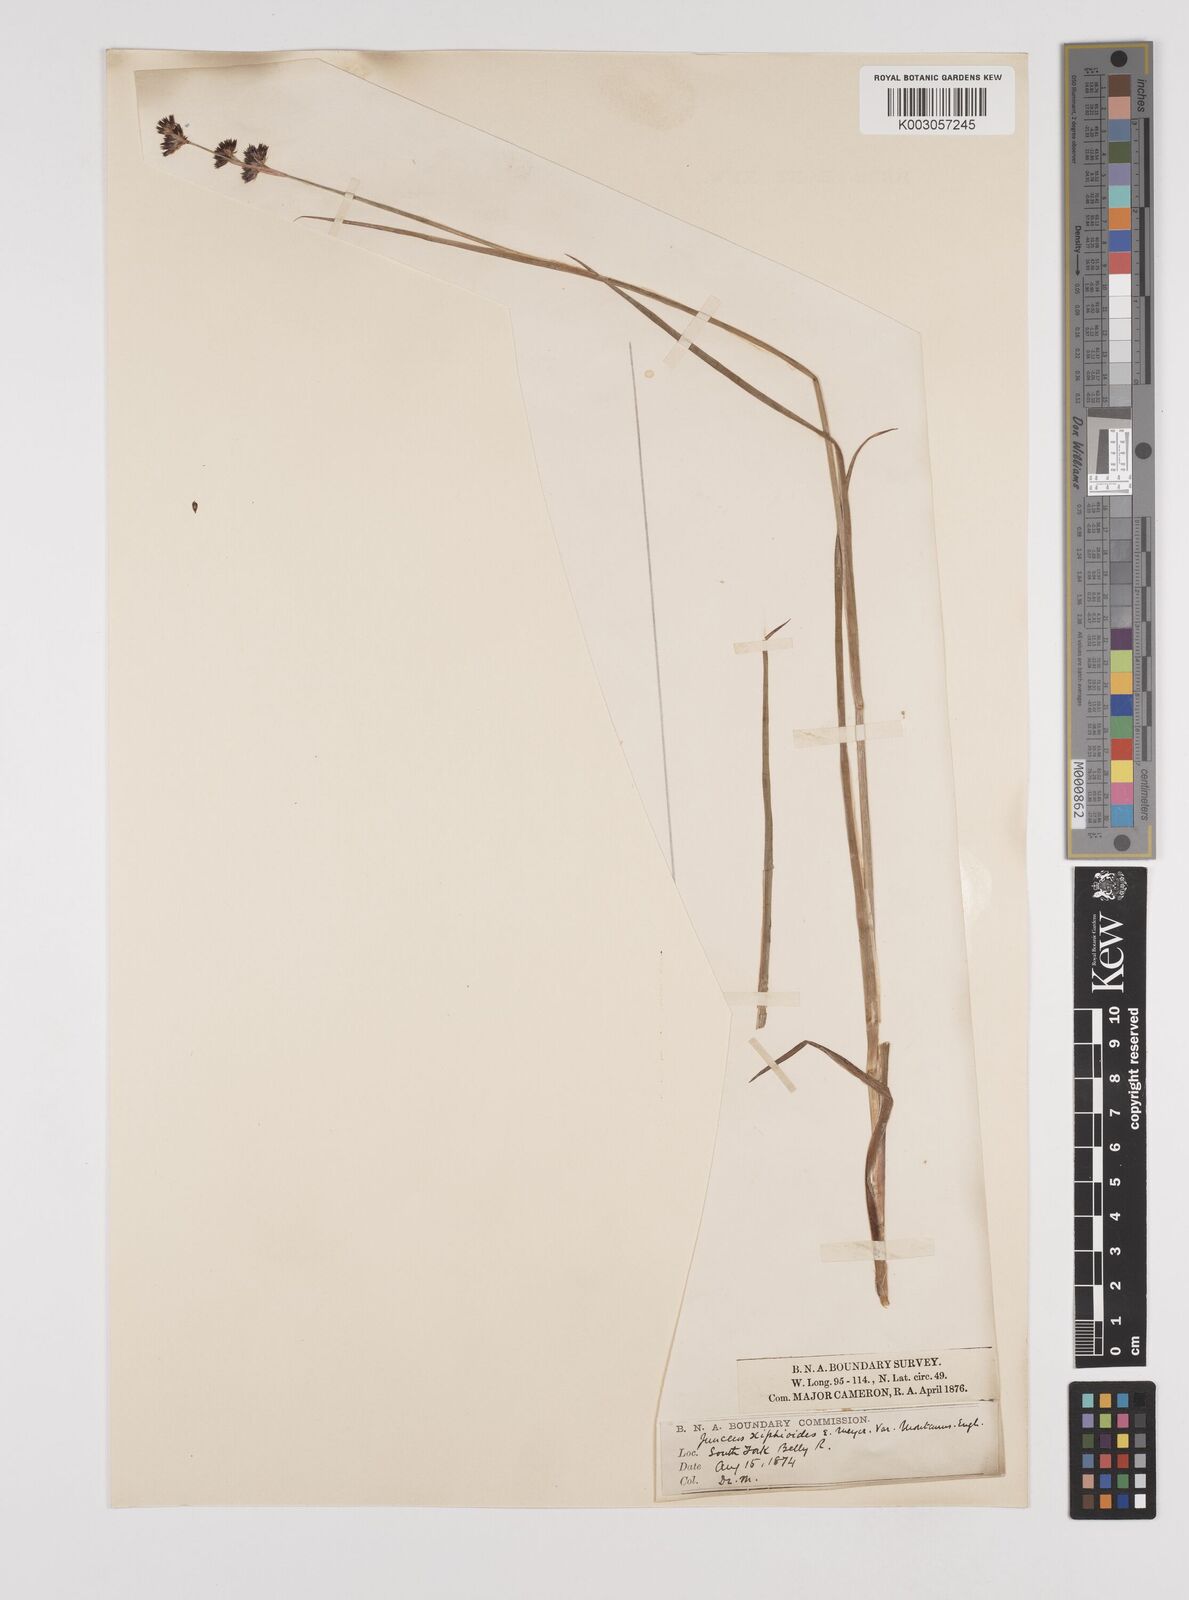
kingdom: Plantae
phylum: Tracheophyta
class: Liliopsida
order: Poales
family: Juncaceae
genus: Juncus
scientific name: Juncus xiphioides
